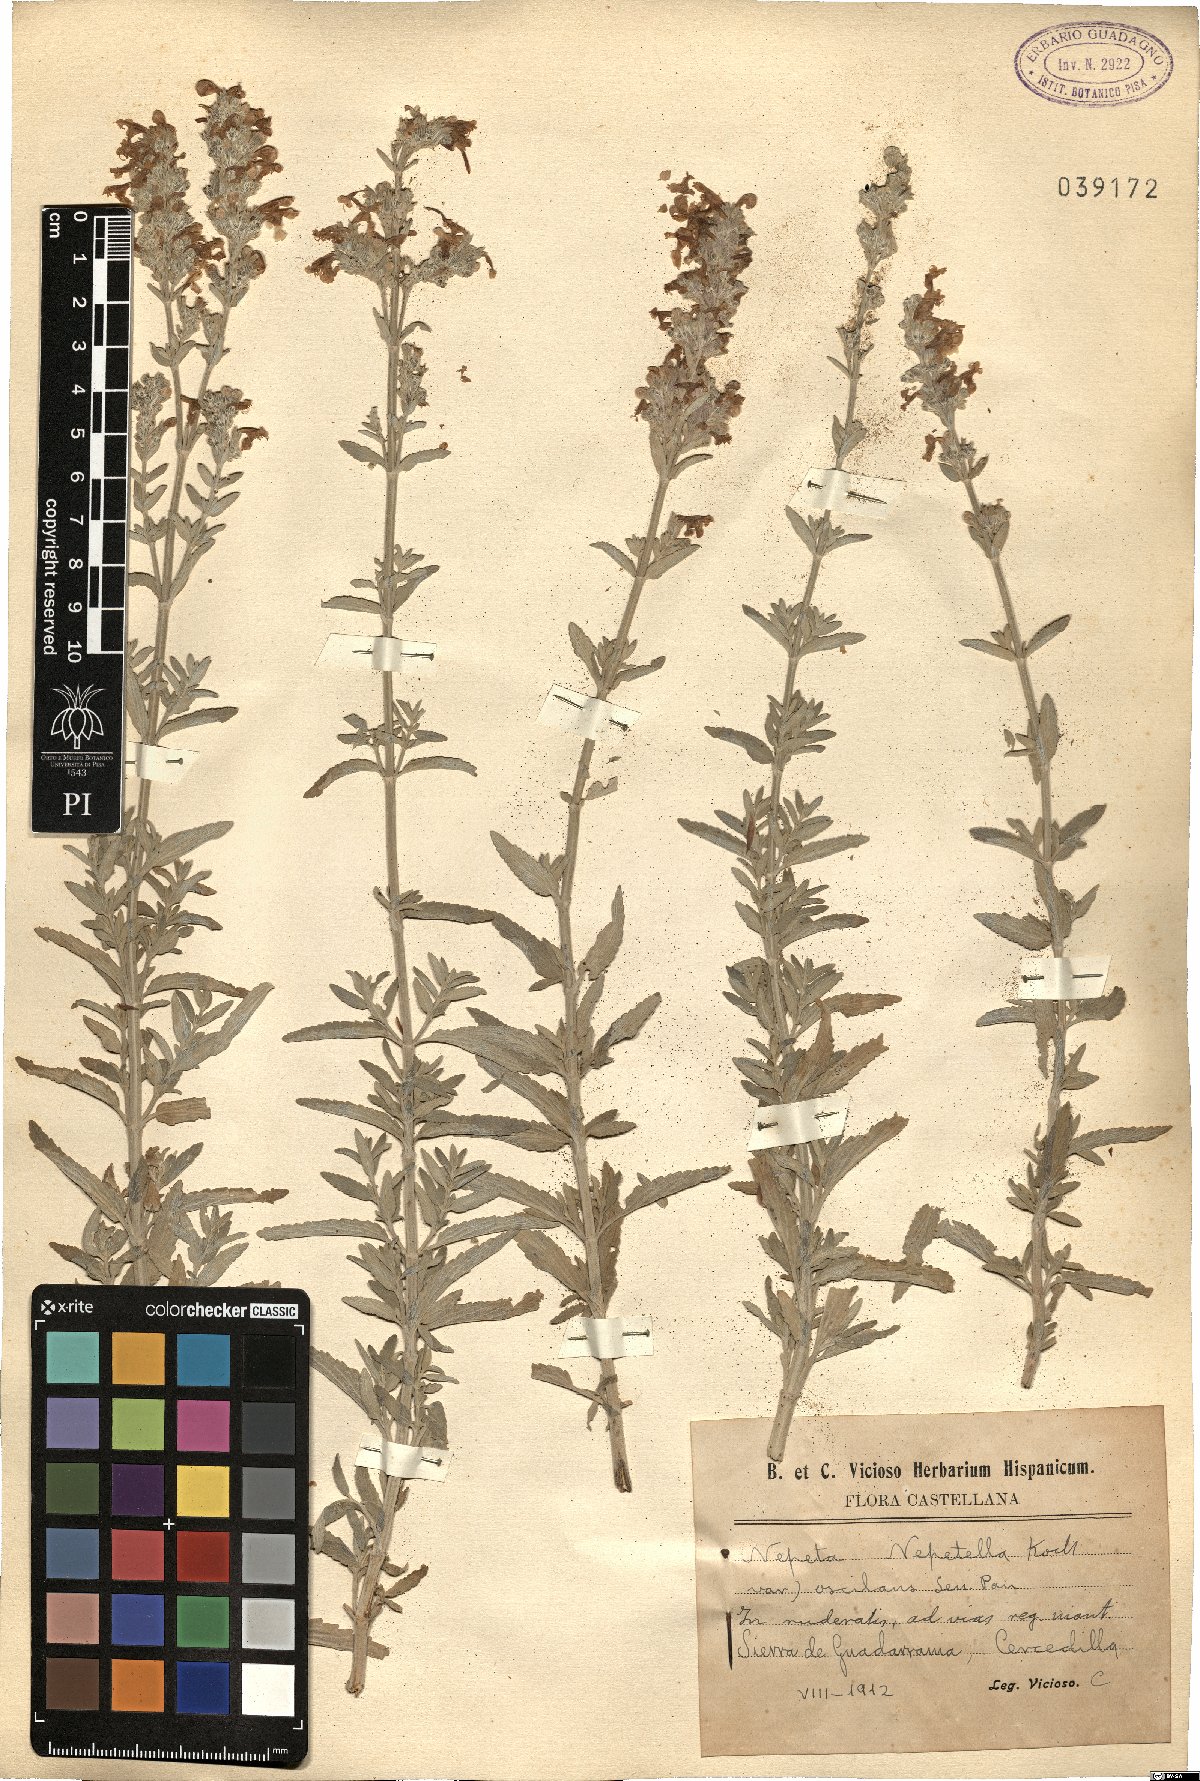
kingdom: Plantae
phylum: Tracheophyta
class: Magnoliopsida
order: Lamiales
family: Lamiaceae
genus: Nepeta
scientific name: Nepeta nepetella
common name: Lesser catmint
